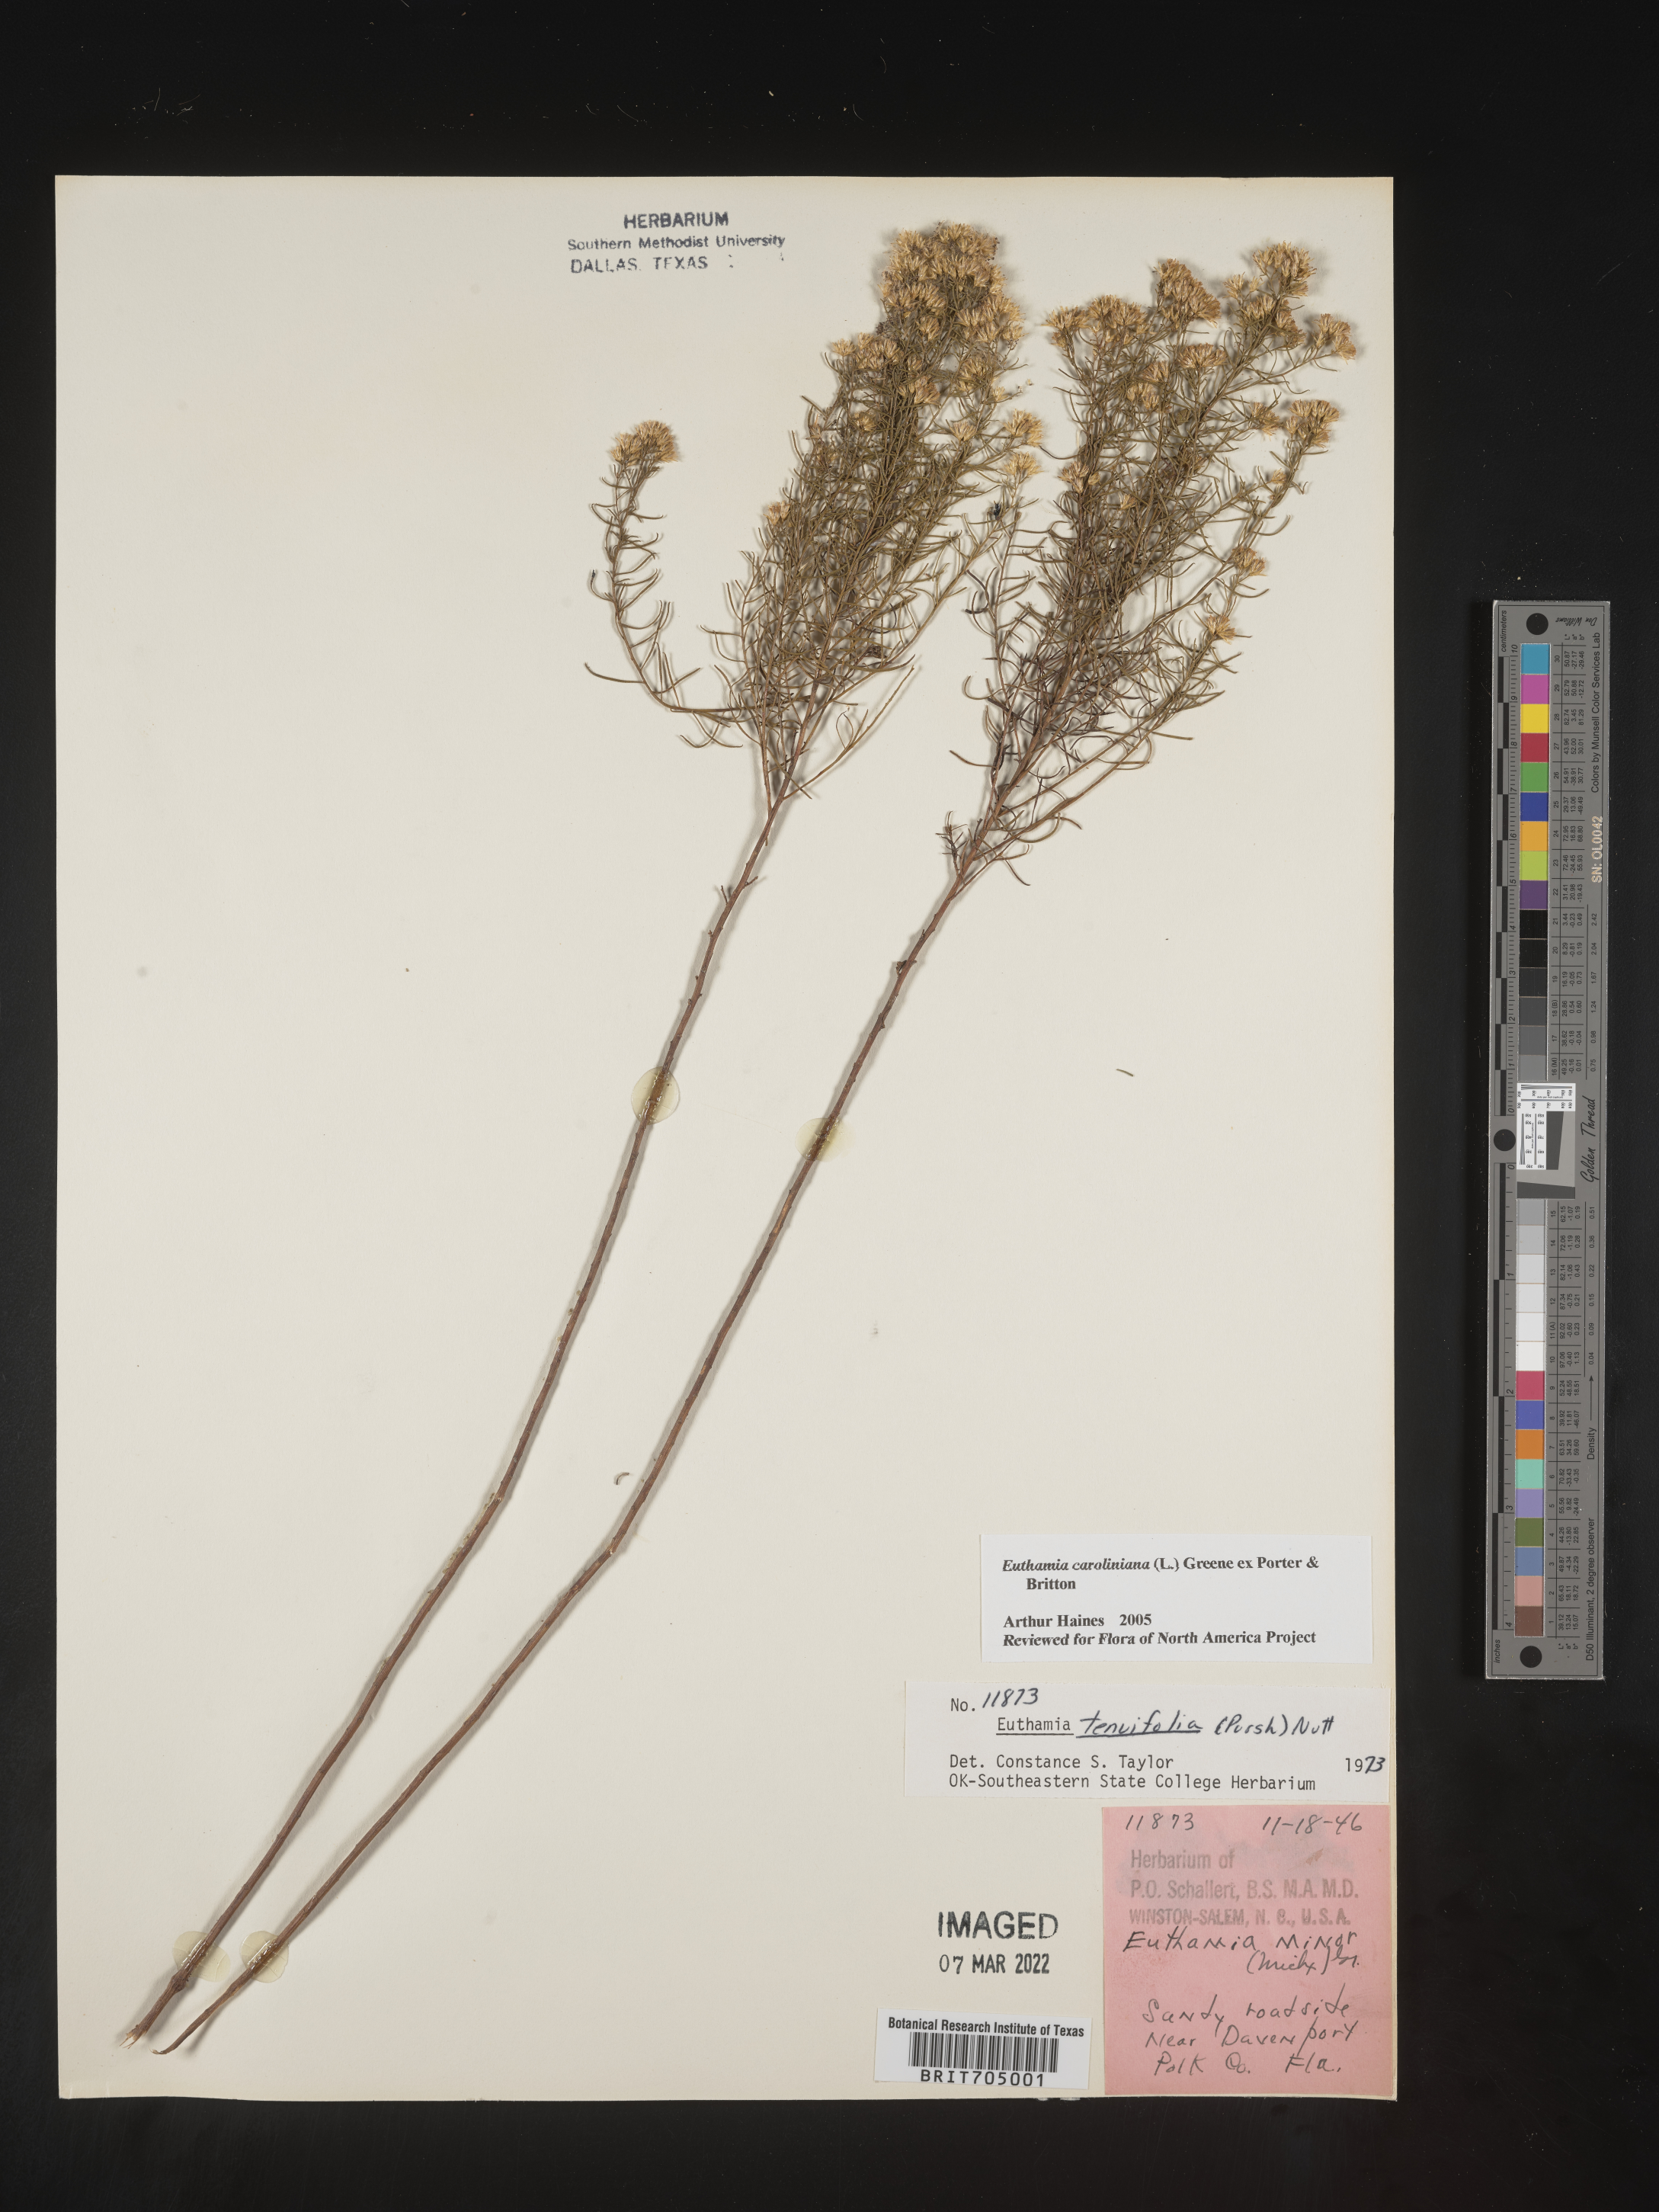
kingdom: Plantae
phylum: Tracheophyta
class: Magnoliopsida
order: Asterales
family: Asteraceae
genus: Euthamia
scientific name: Euthamia caroliniana
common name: Coastal plain goldentop
